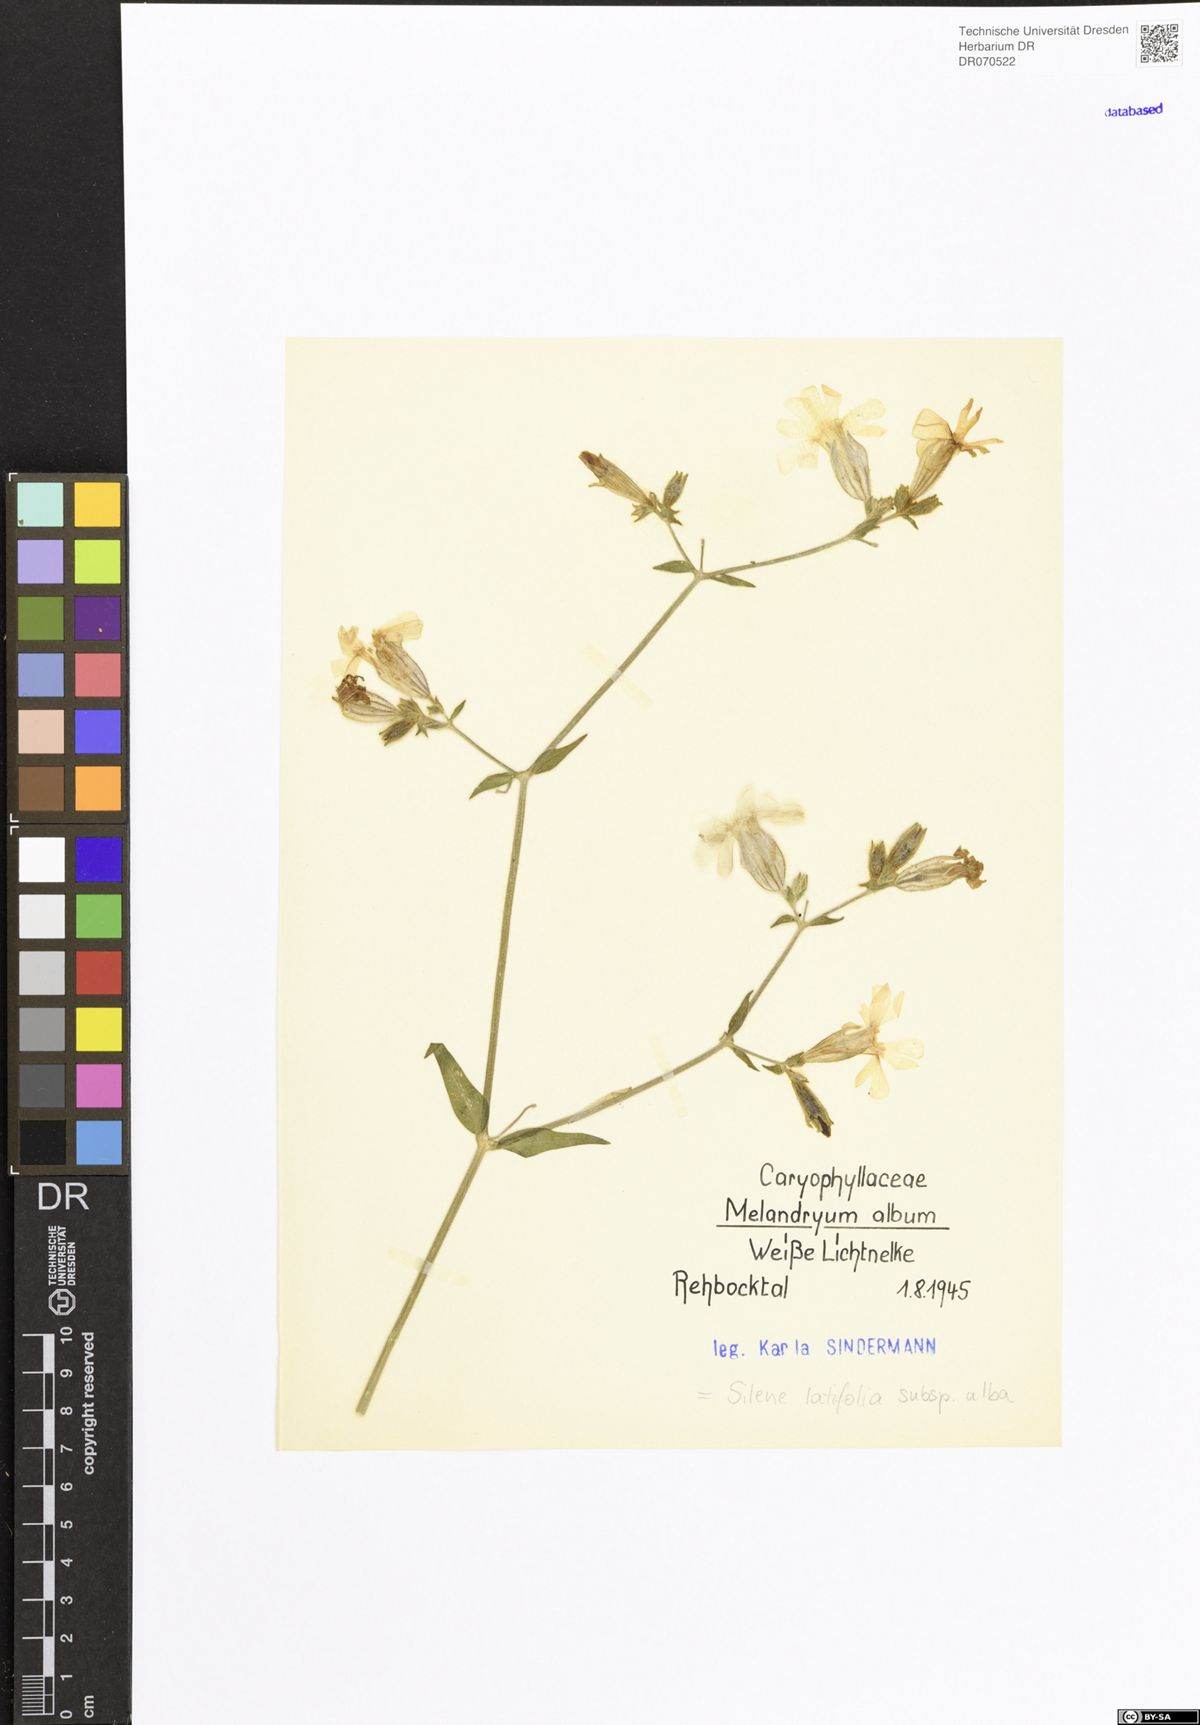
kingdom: Plantae
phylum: Tracheophyta
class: Magnoliopsida
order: Caryophyllales
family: Caryophyllaceae
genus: Silene
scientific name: Silene latifolia
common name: White campion
